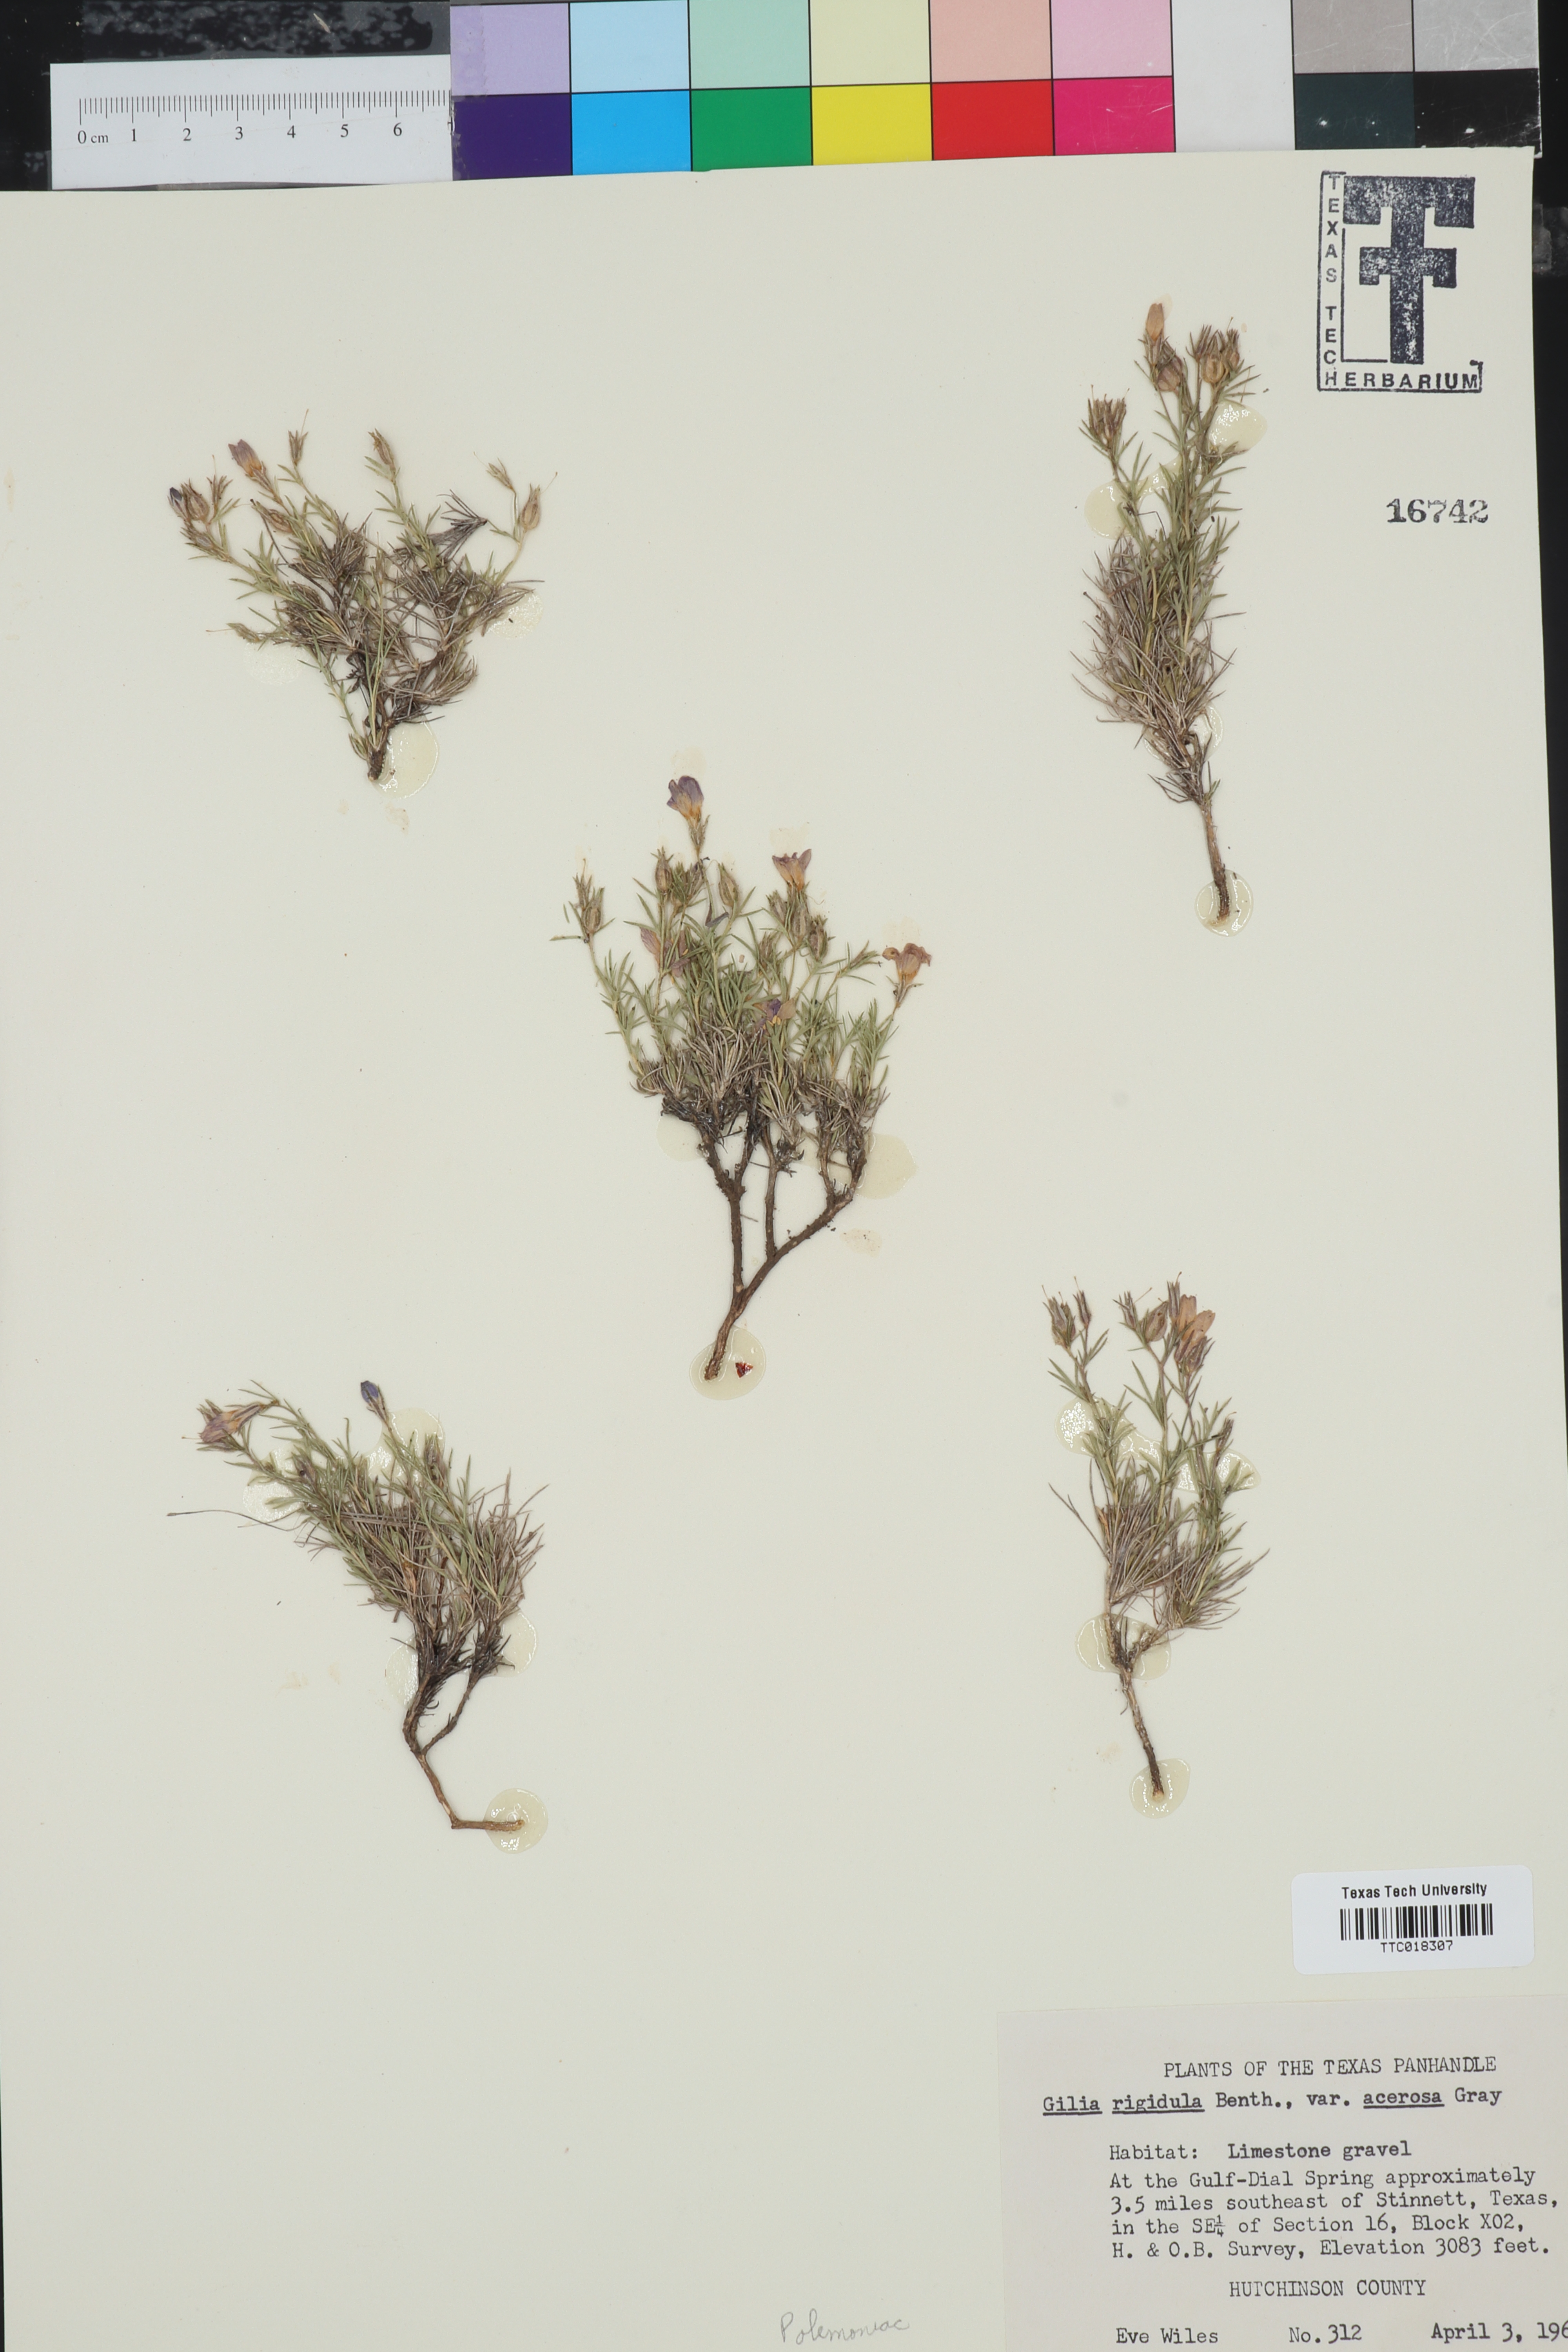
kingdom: Plantae
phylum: Tracheophyta
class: Magnoliopsida
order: Ericales
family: Polemoniaceae
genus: Giliastrum
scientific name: Giliastrum acerosum
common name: Bluebowls
